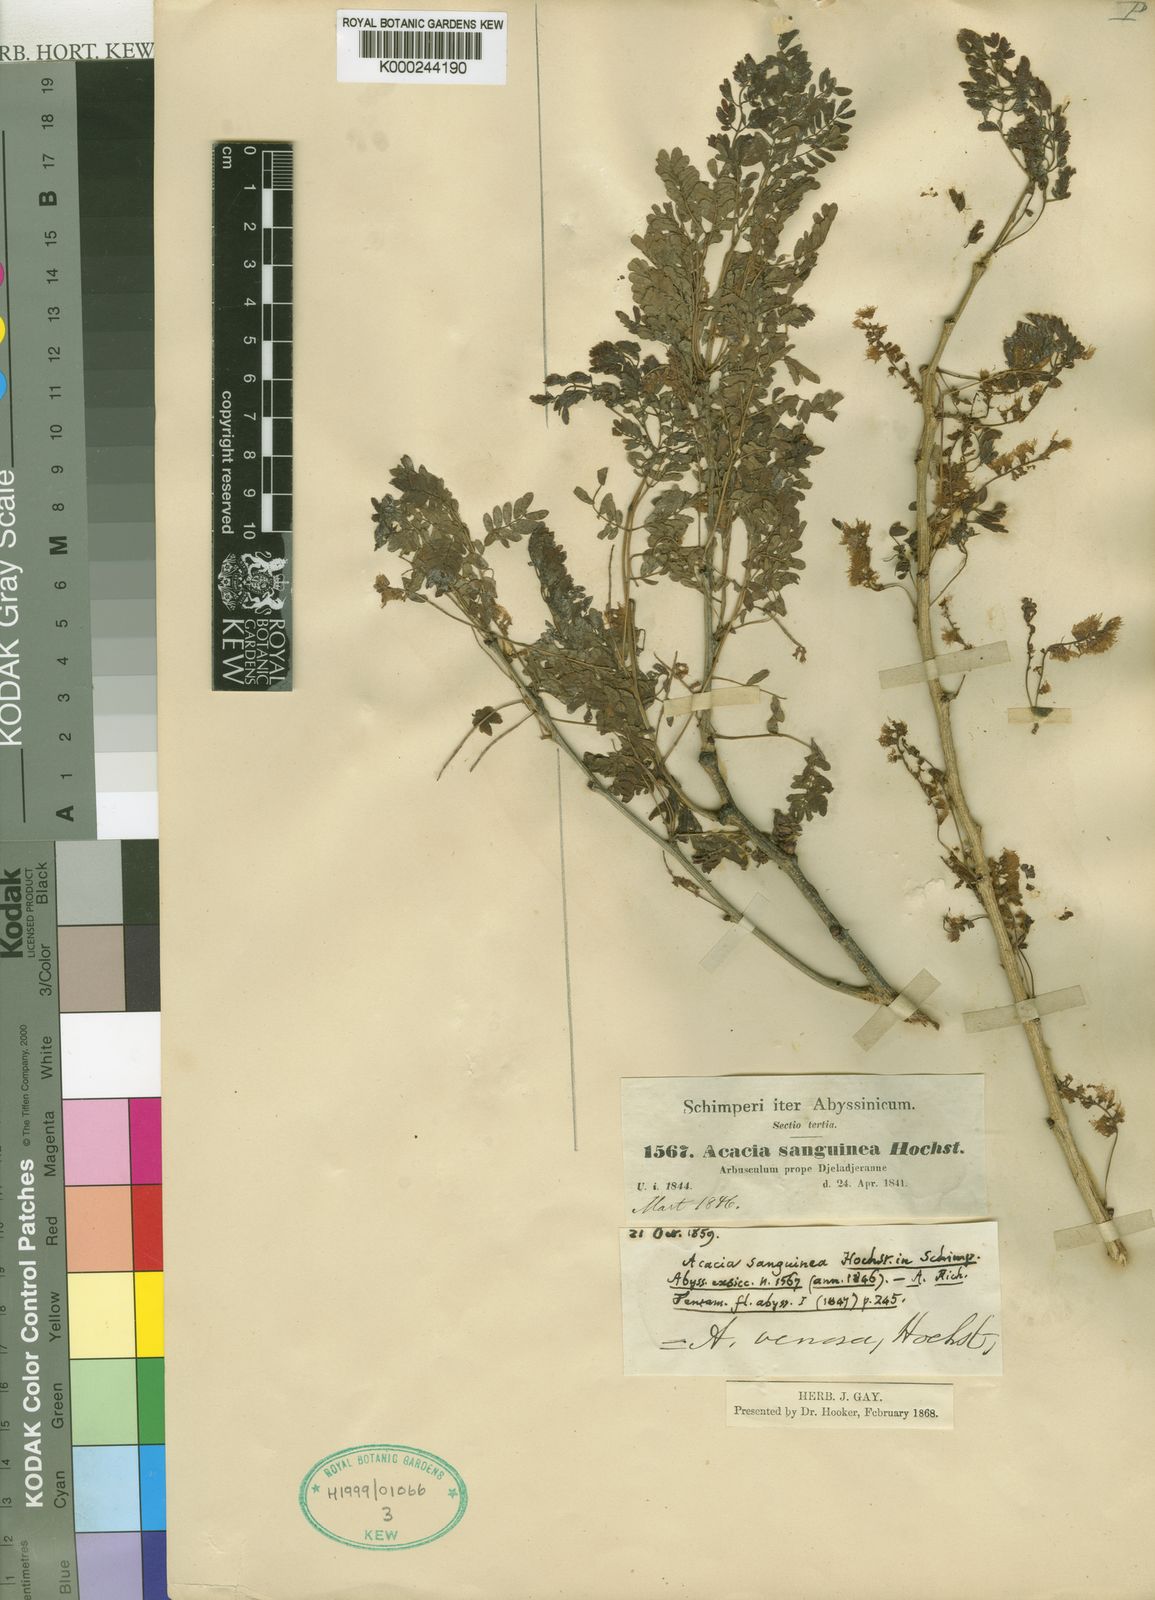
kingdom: Plantae
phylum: Tracheophyta
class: Magnoliopsida
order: Fabales
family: Fabaceae
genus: Senegalia
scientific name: Senegalia venosa
